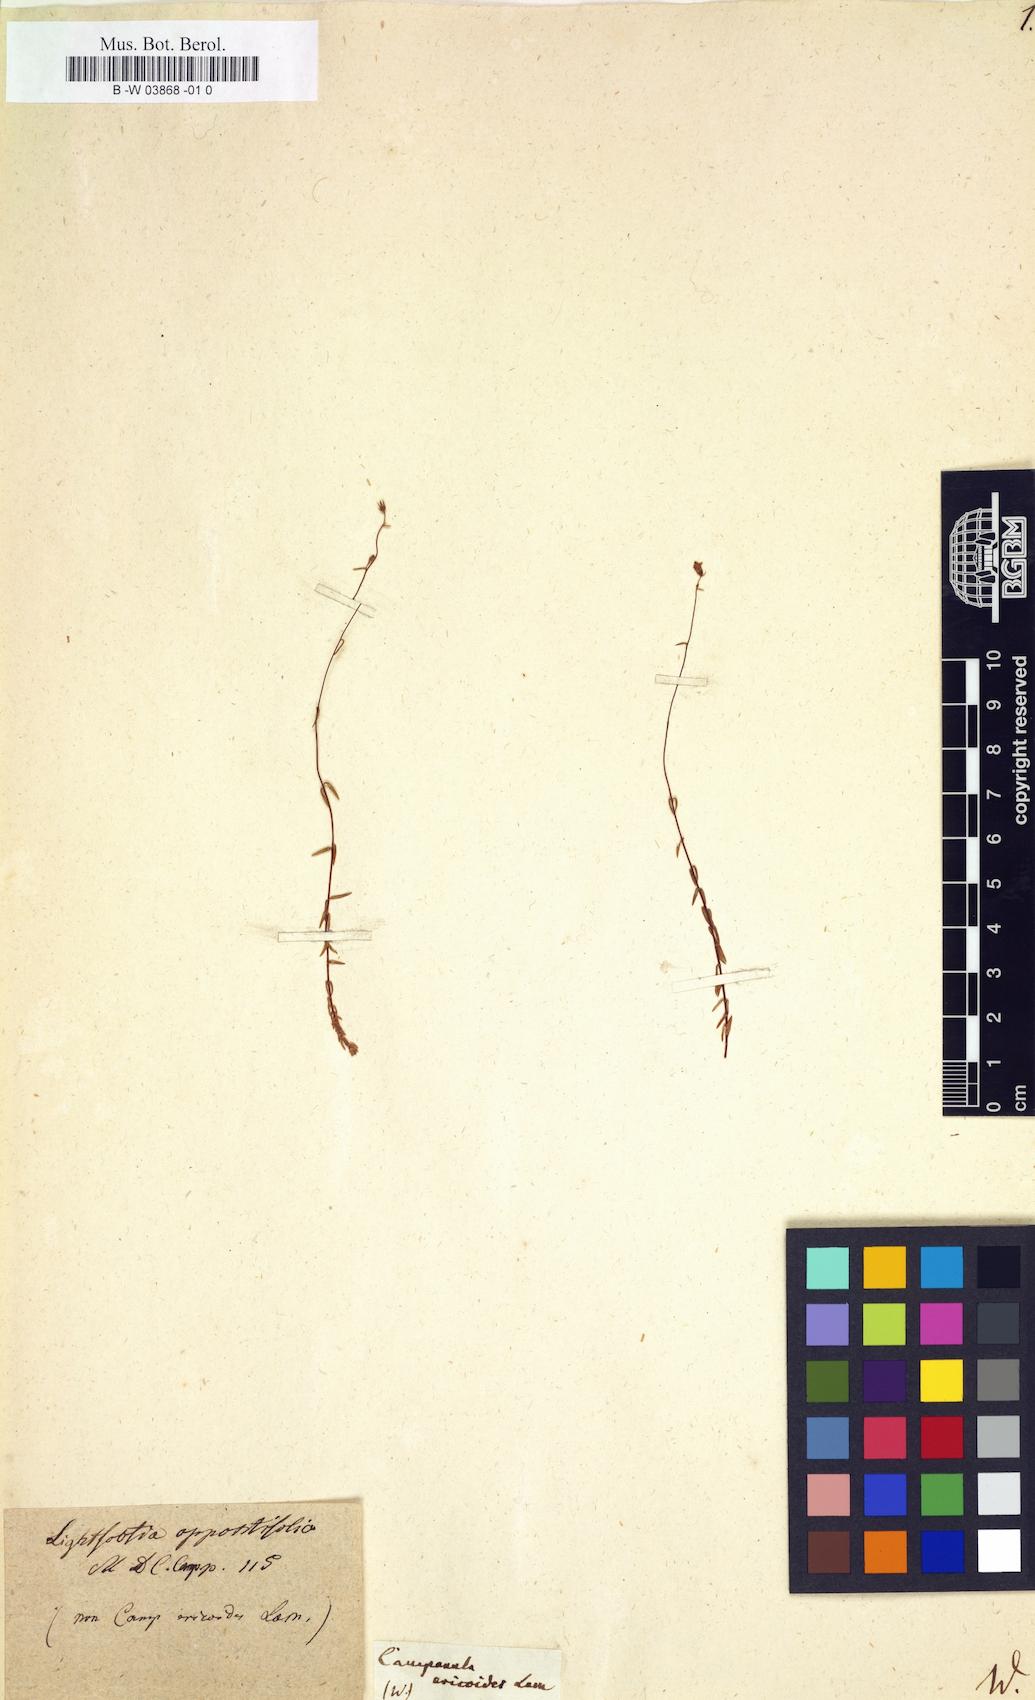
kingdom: Plantae
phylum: Tracheophyta
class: Magnoliopsida
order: Asterales
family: Campanulaceae
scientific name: Campanulaceae
